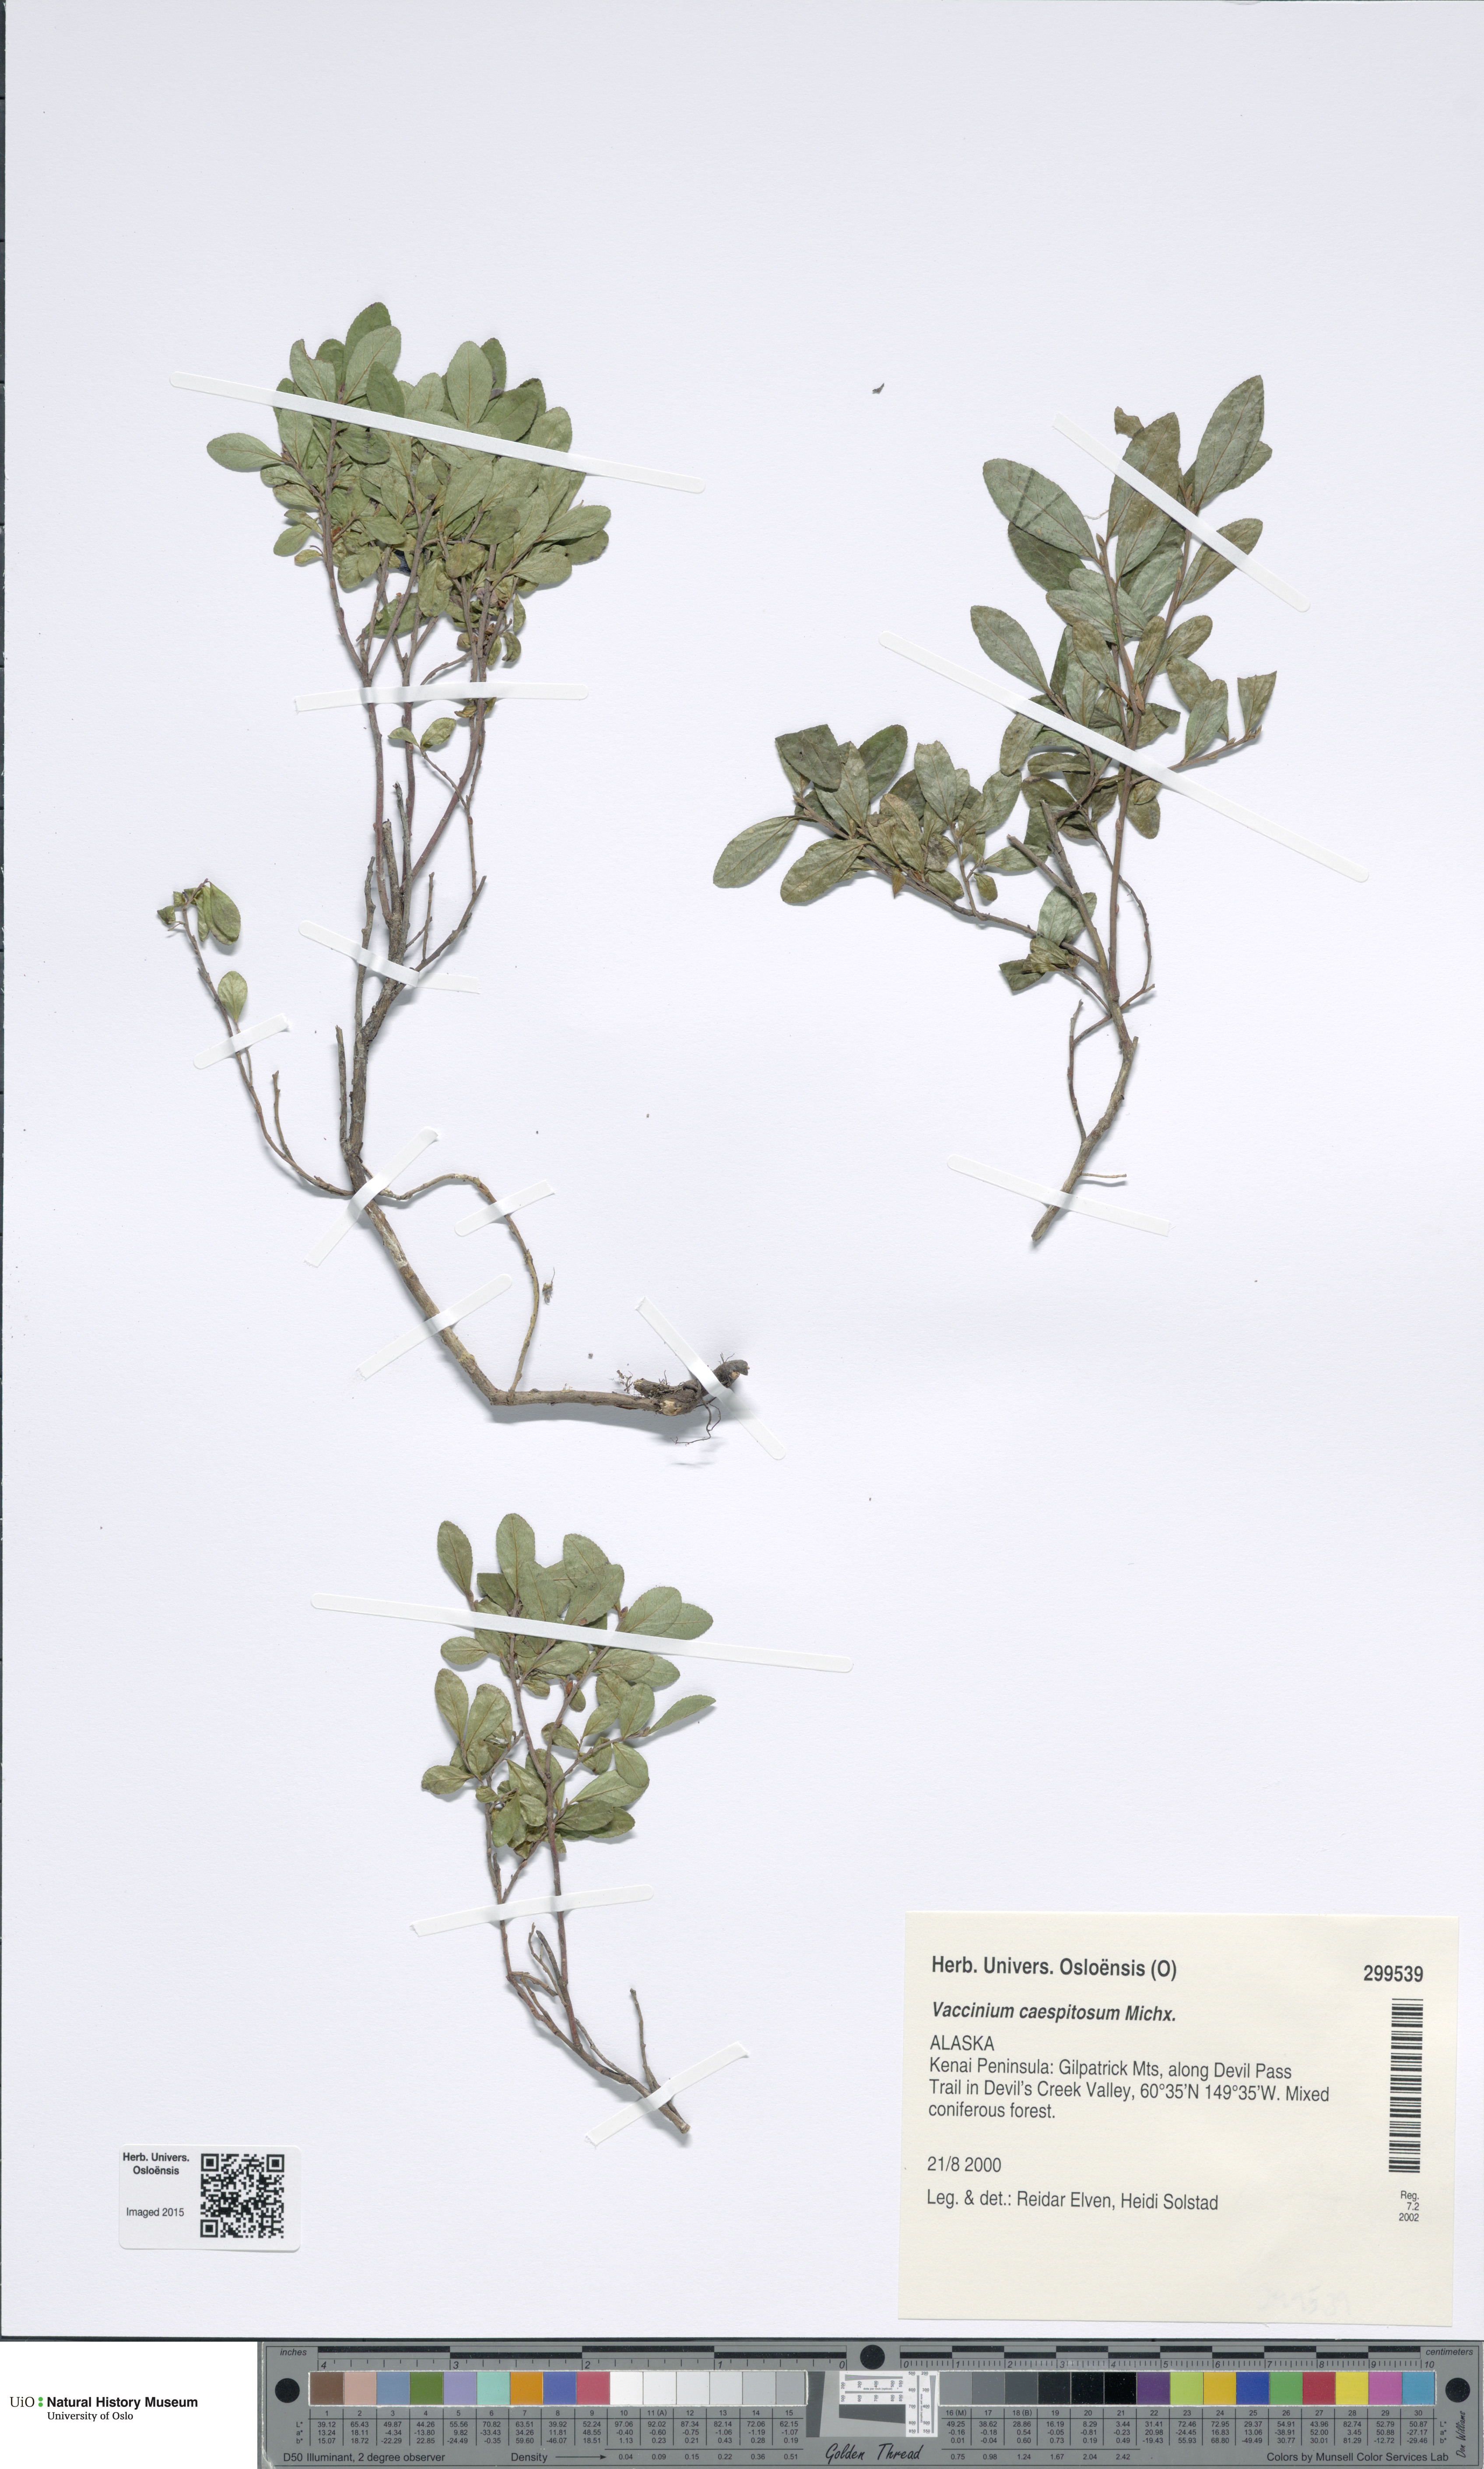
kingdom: Plantae
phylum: Tracheophyta
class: Magnoliopsida
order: Ericales
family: Ericaceae
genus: Vaccinium
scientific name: Vaccinium cespitosum
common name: Dwarf bilberry
